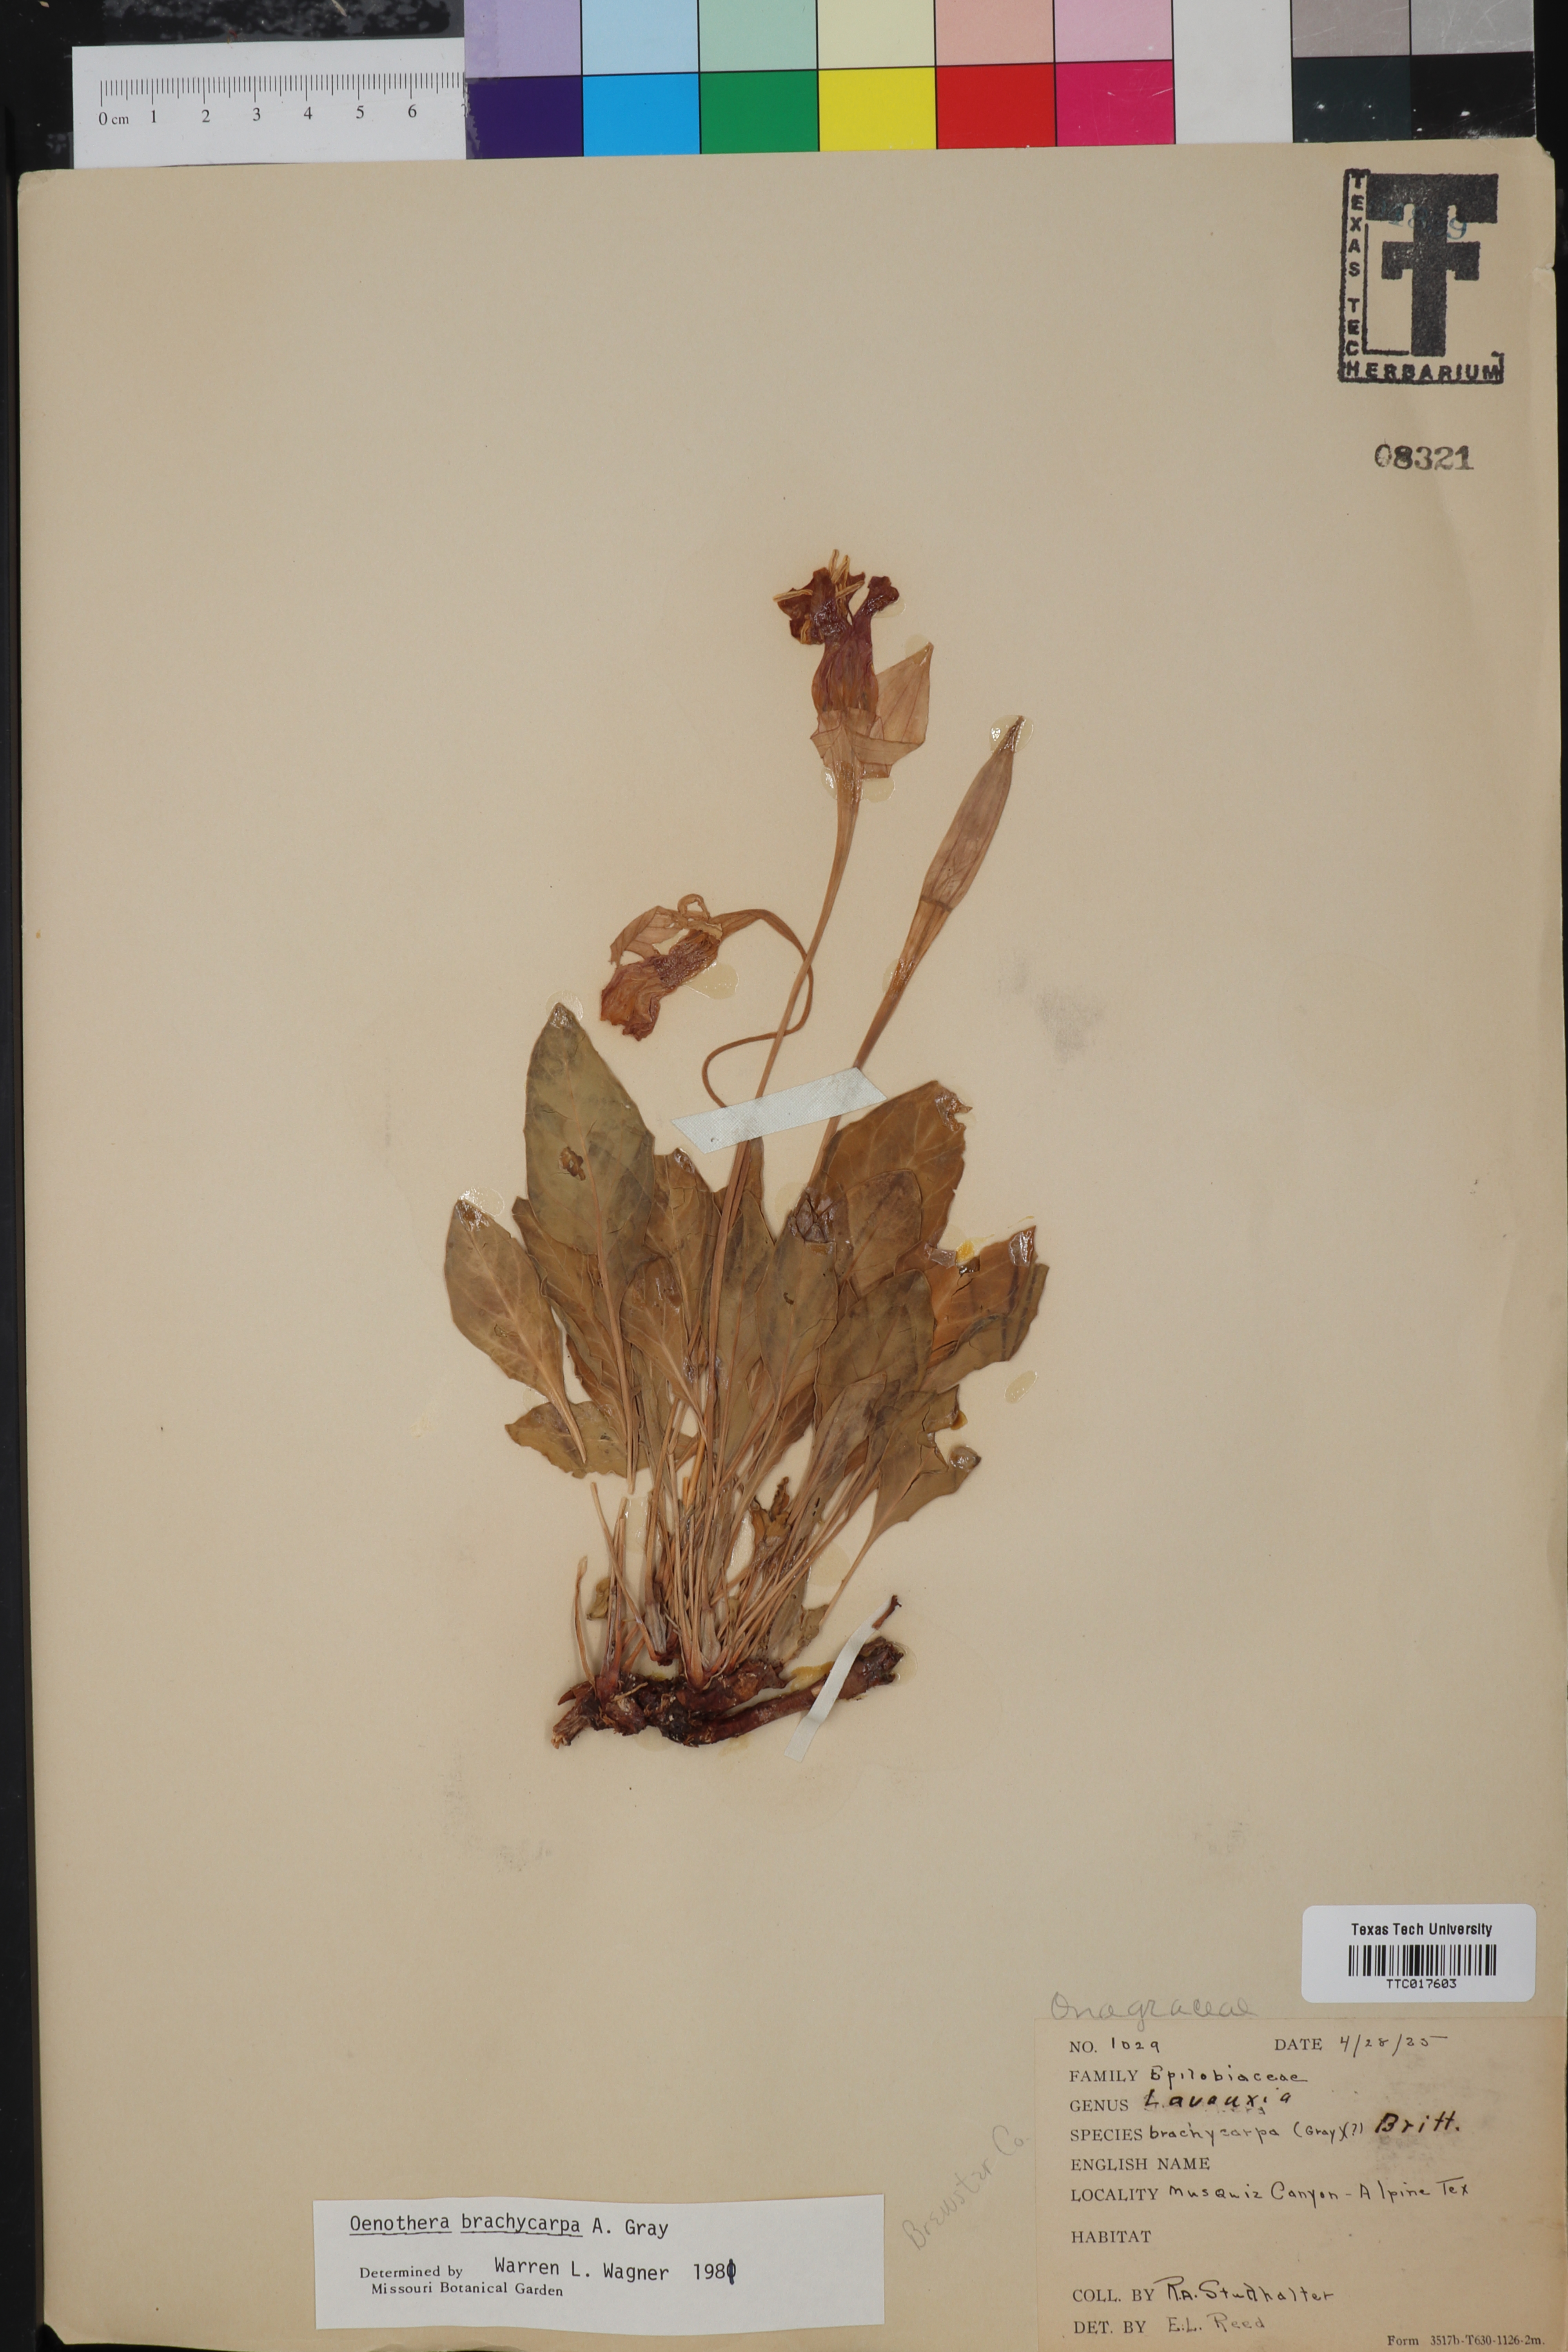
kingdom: Plantae
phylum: Tracheophyta
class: Magnoliopsida
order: Myrtales
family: Onagraceae
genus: Oenothera
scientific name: Oenothera brachycarpa
